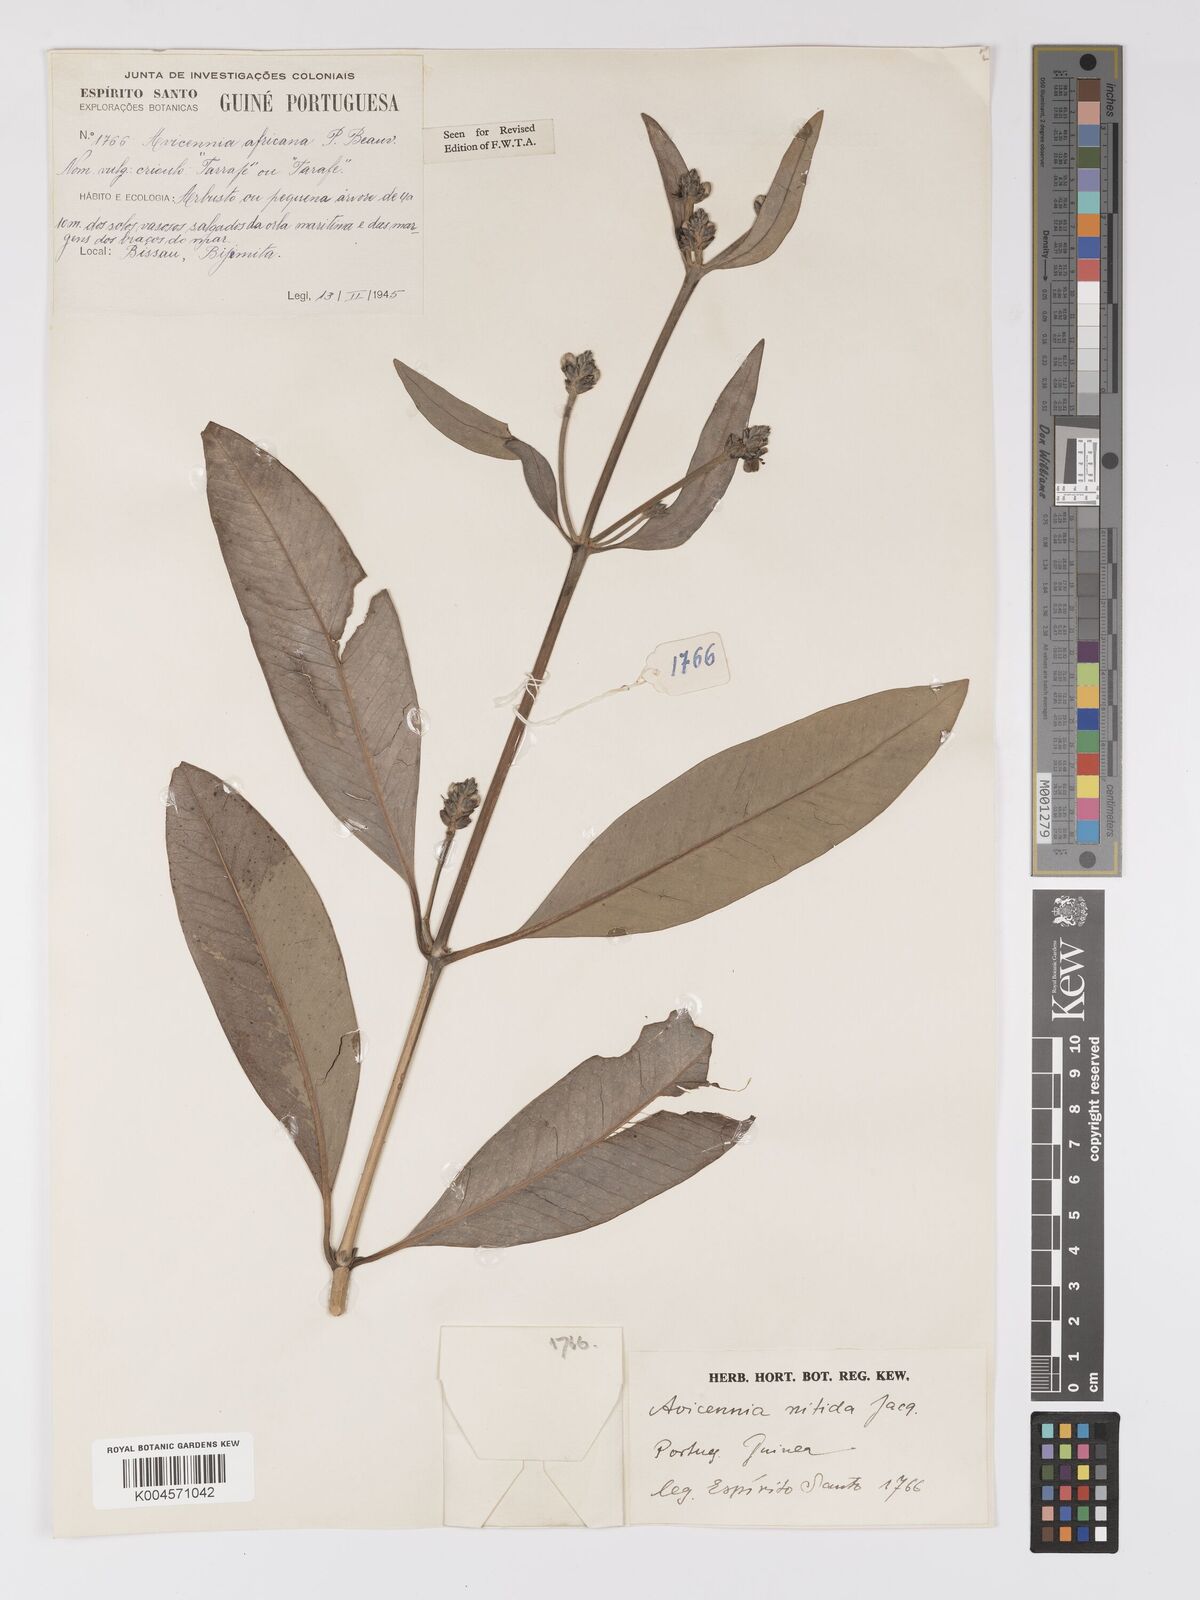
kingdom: Plantae
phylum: Tracheophyta
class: Magnoliopsida
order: Lamiales
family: Acanthaceae
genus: Avicennia
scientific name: Avicennia germinans
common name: Black mangrove
